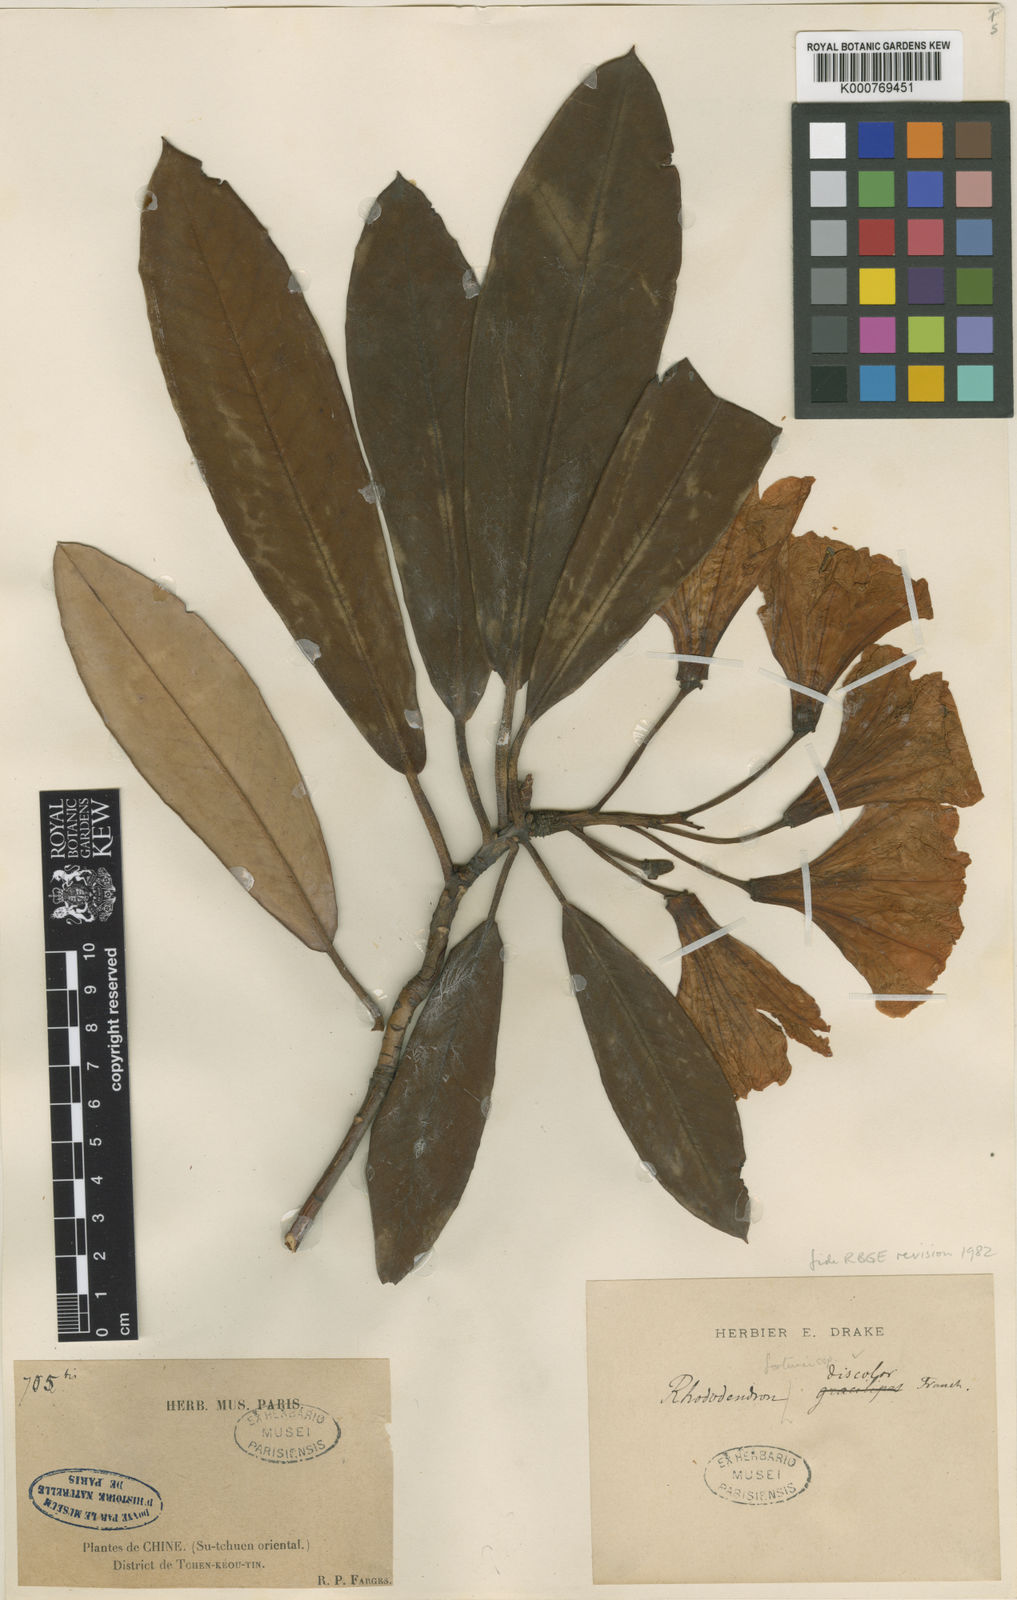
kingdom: Plantae
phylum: Tracheophyta
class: Magnoliopsida
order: Ericales
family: Ericaceae
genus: Rhododendron
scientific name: Rhododendron fortunei
